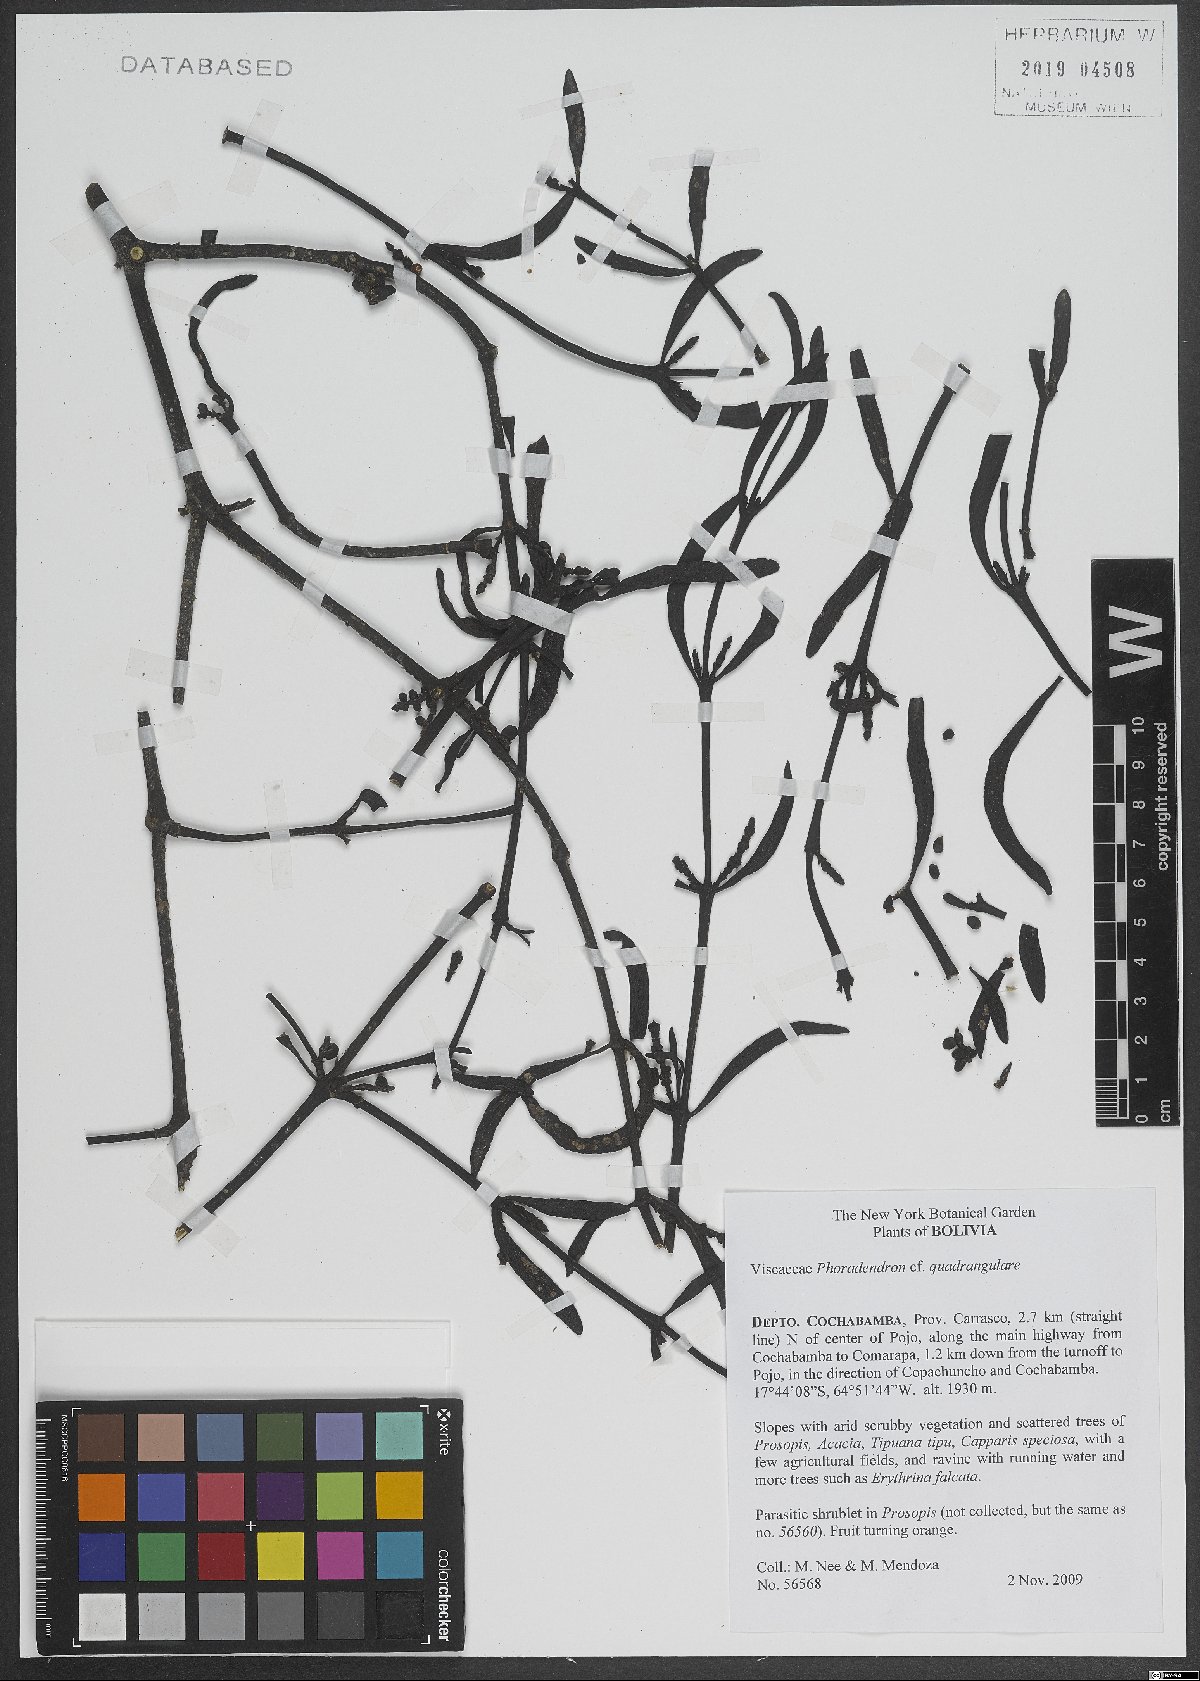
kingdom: Plantae
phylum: Tracheophyta
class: Magnoliopsida
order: Santalales
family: Viscaceae
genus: Phoradendron
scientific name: Phoradendron quadrangulare
